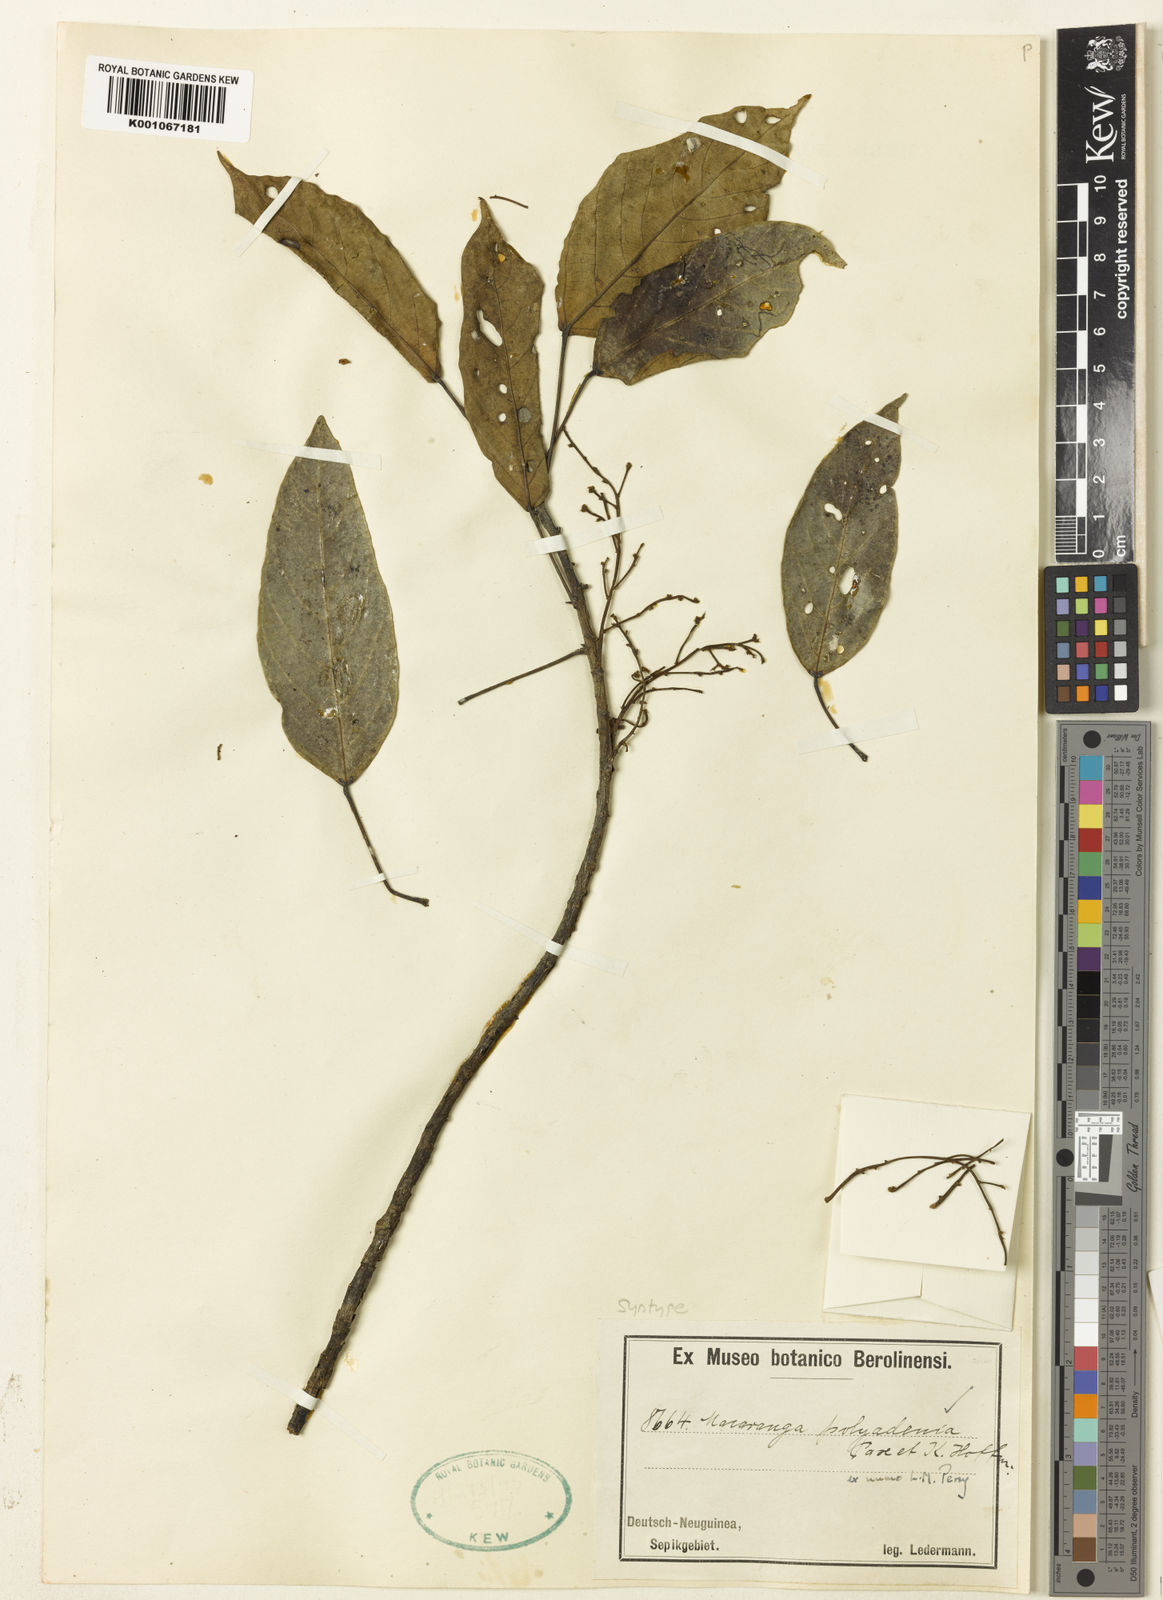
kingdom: Plantae
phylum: Tracheophyta
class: Magnoliopsida
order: Malpighiales
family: Euphorbiaceae
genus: Macaranga
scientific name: Macaranga polyadenia
